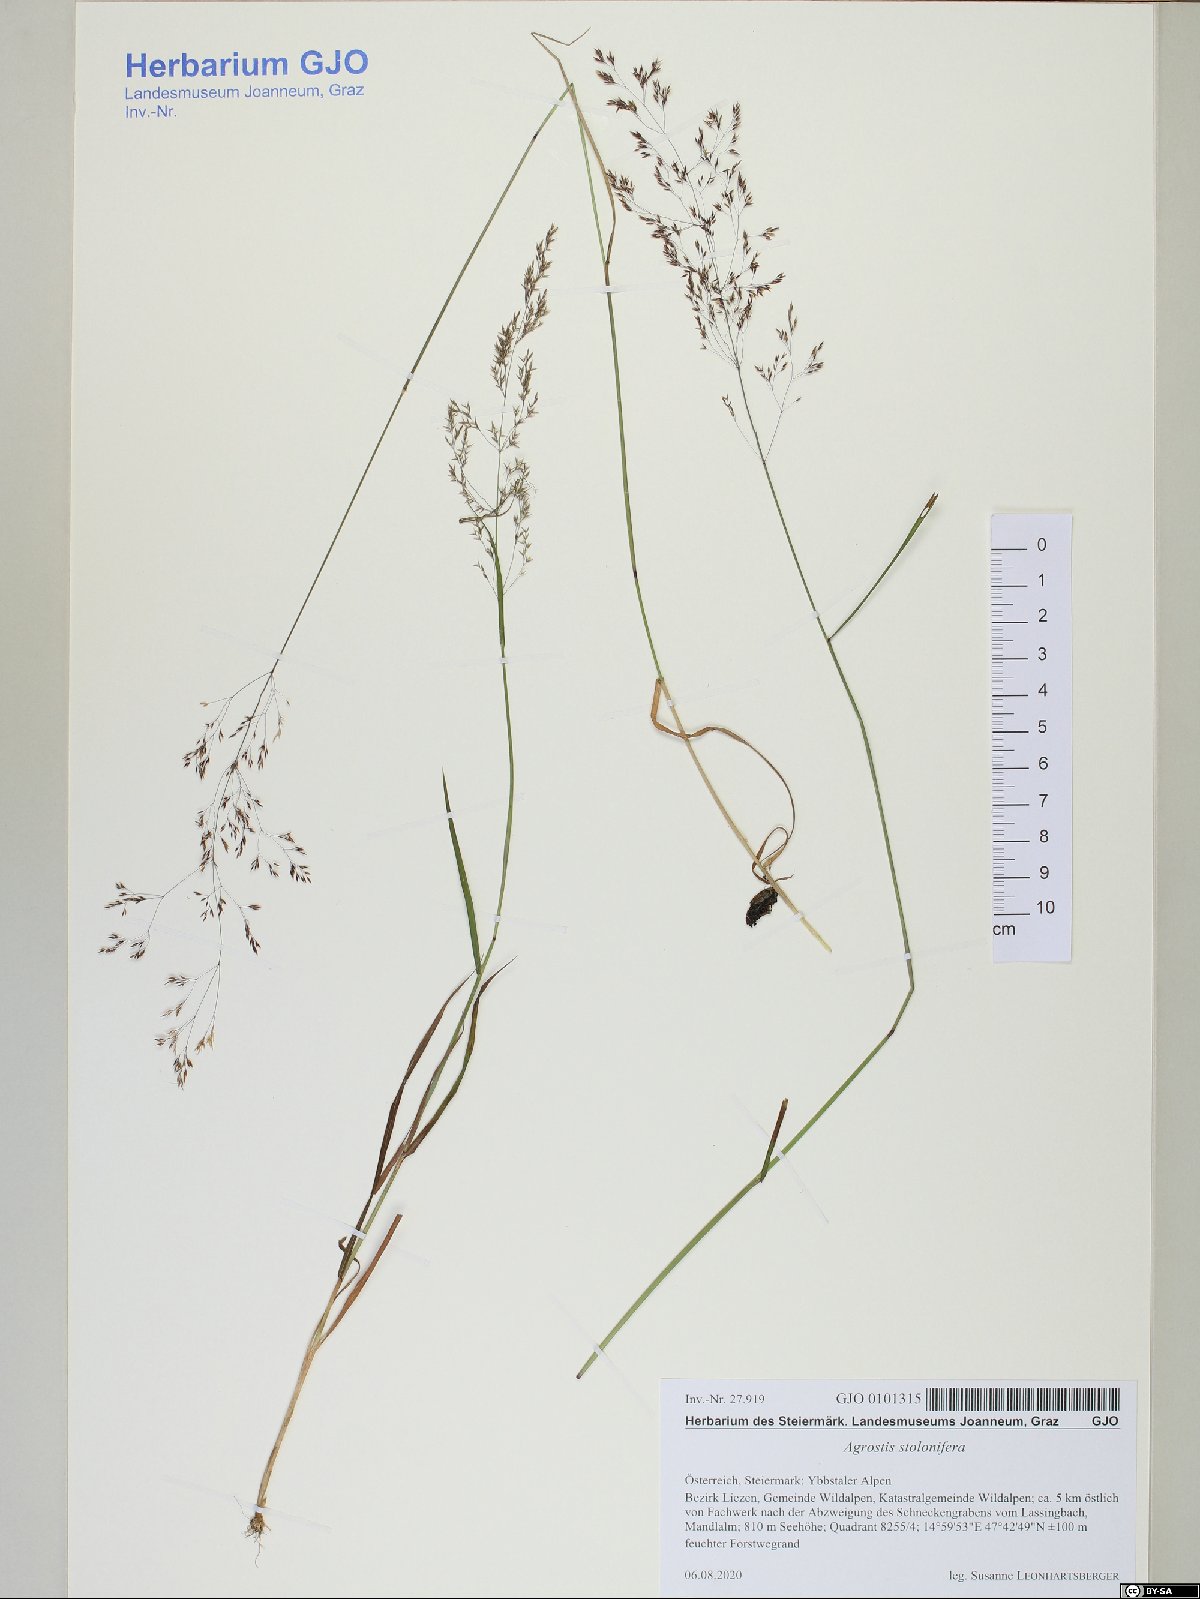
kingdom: Plantae
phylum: Tracheophyta
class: Liliopsida
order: Poales
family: Poaceae
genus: Agrostis
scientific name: Agrostis stolonifera
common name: Creeping bentgrass
